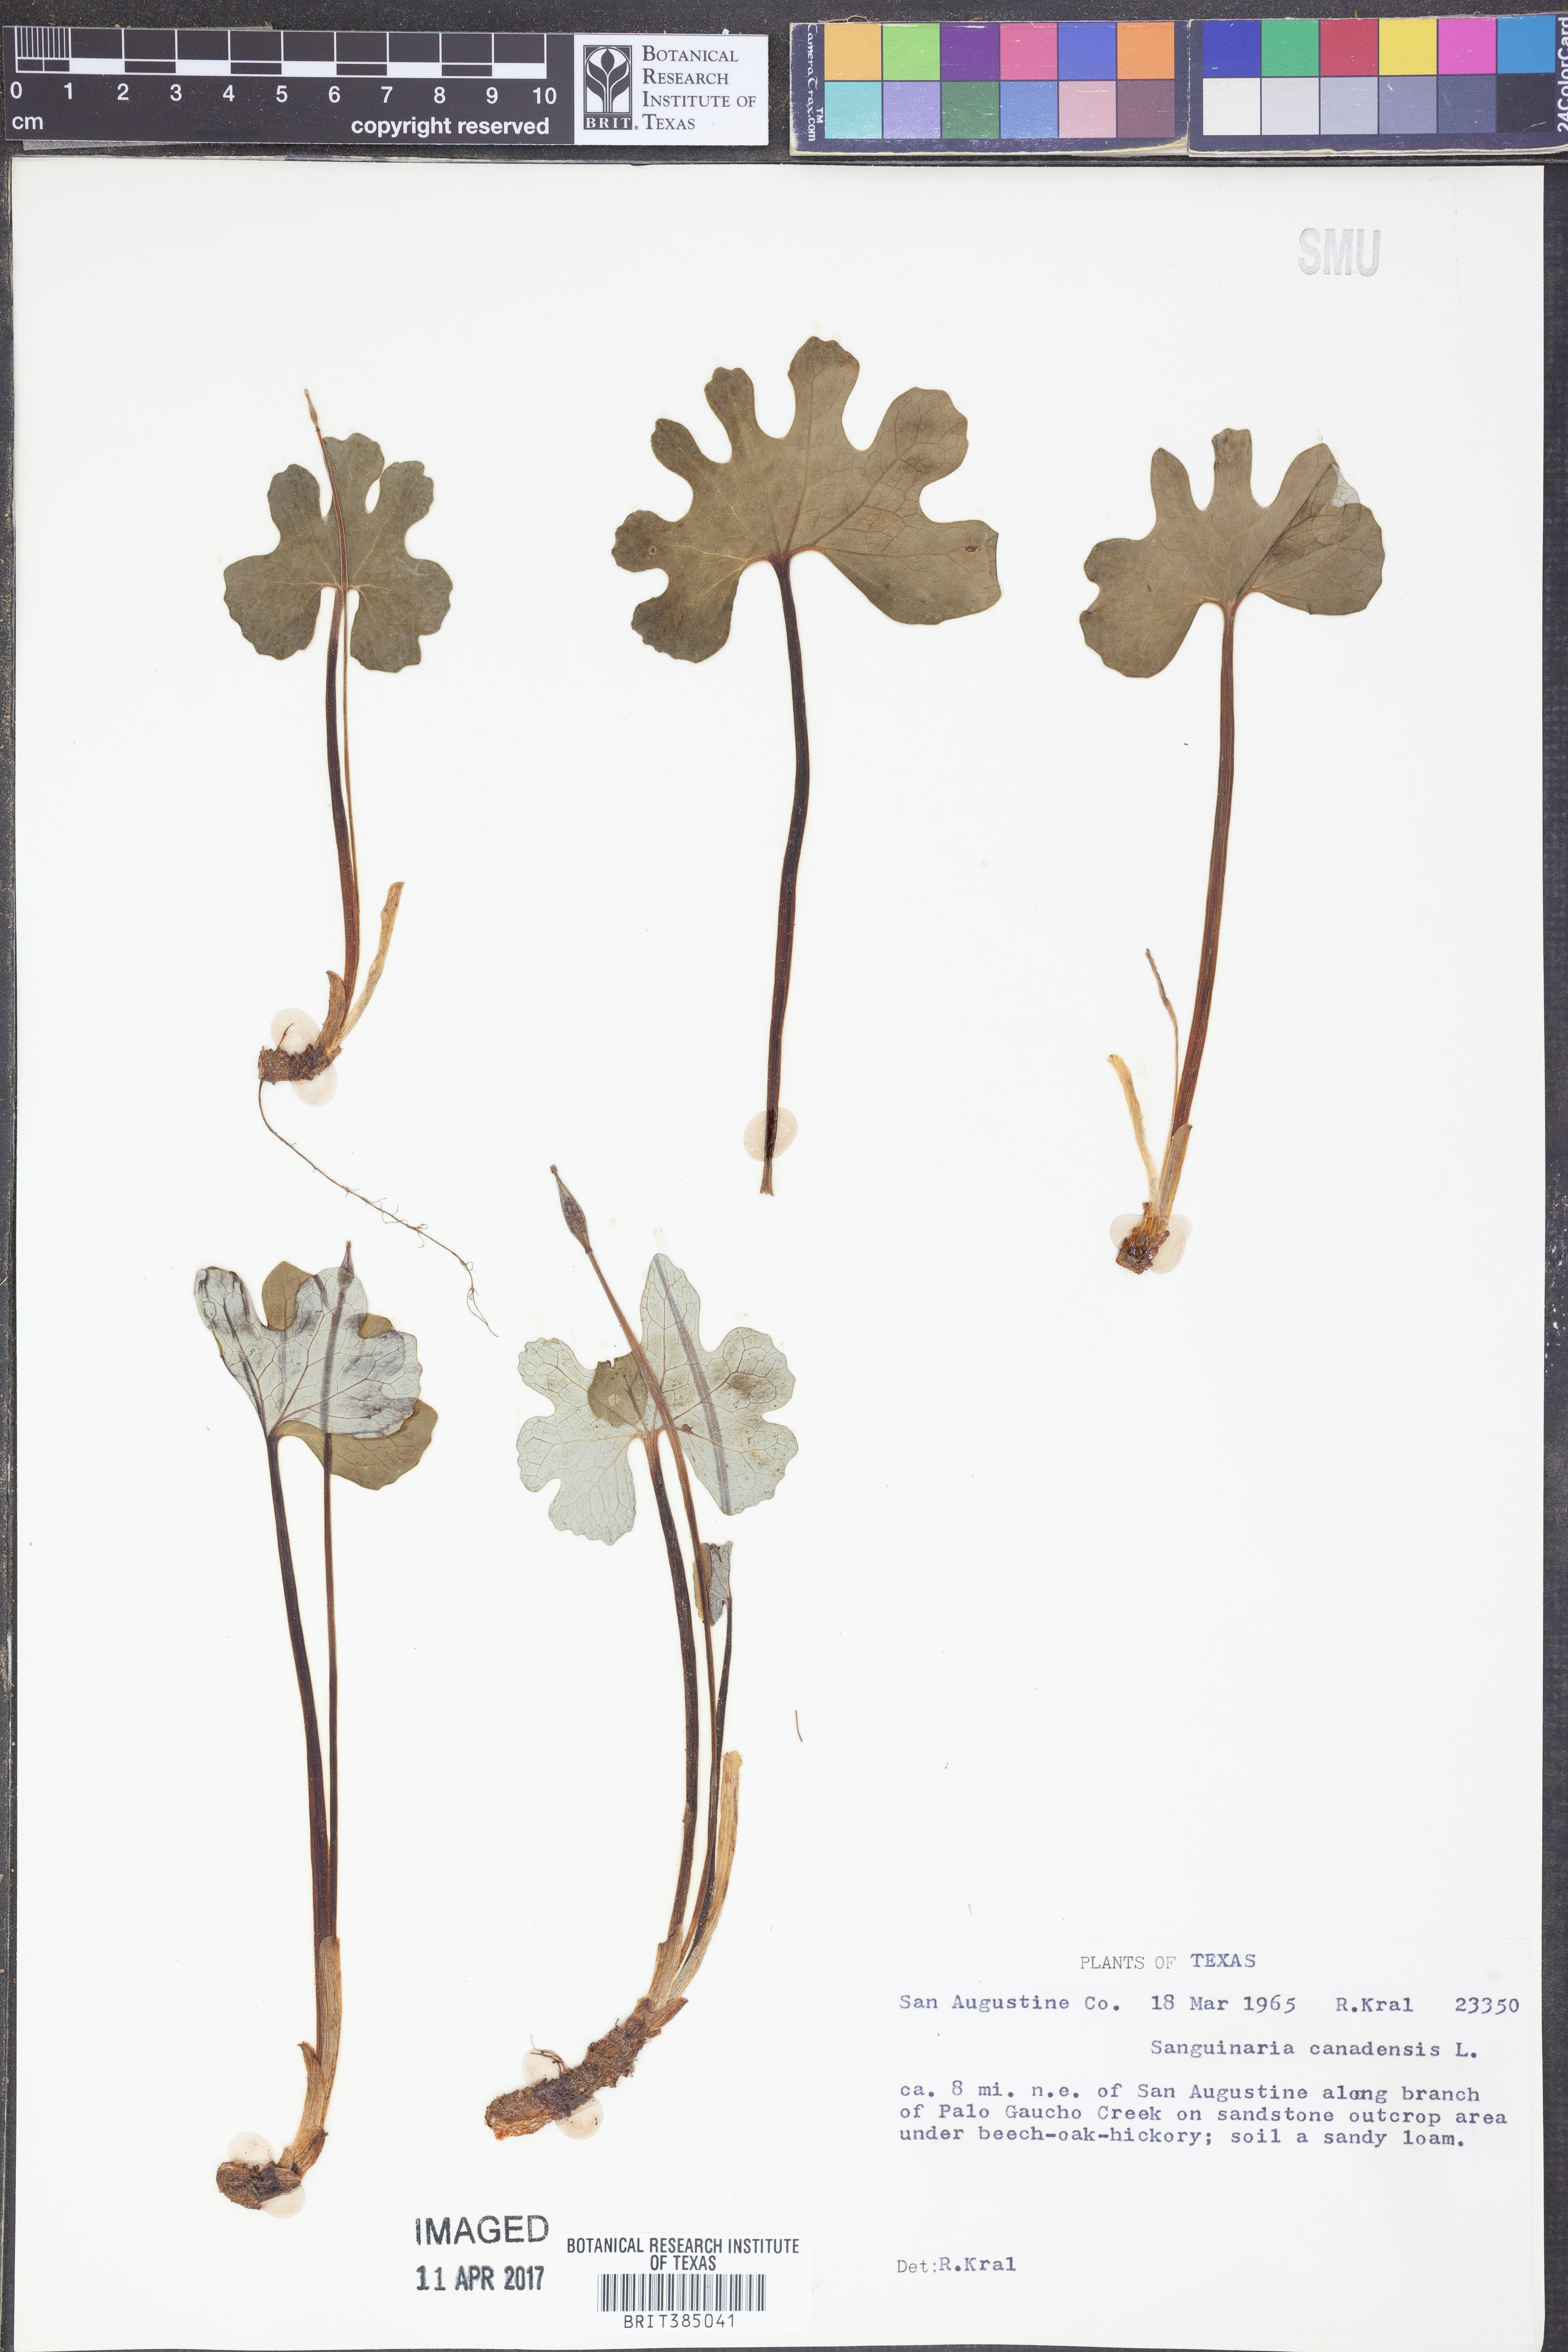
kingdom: Plantae
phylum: Tracheophyta
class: Magnoliopsida
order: Ranunculales
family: Papaveraceae
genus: Sanguinaria
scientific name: Sanguinaria canadensis
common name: Bloodroot
